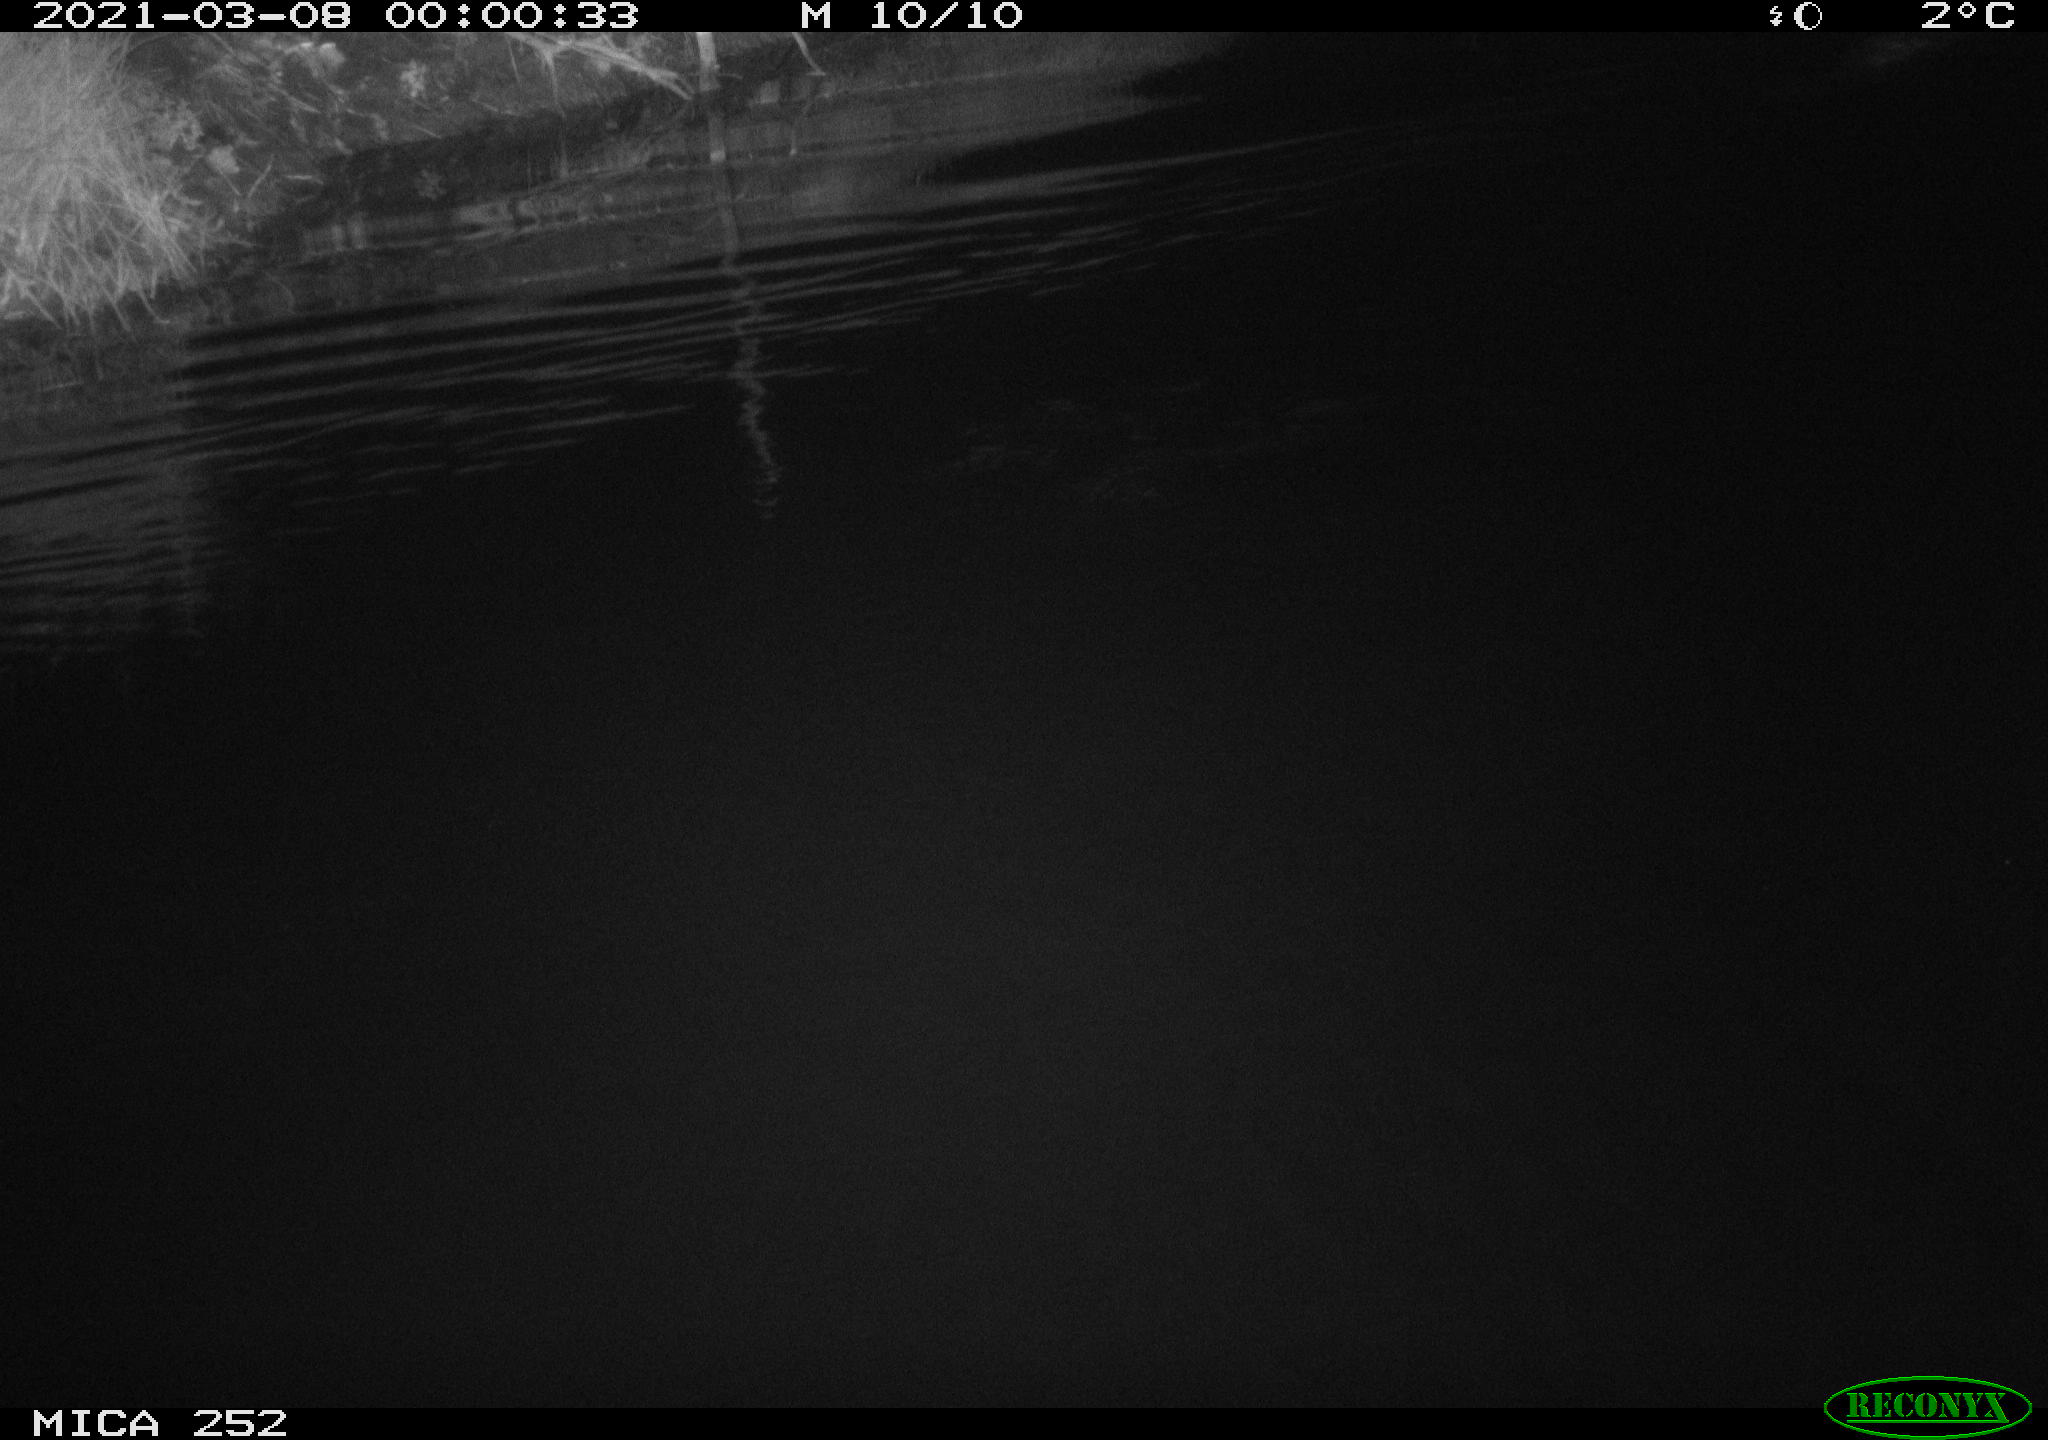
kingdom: Animalia
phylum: Chordata
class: Mammalia
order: Rodentia
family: Castoridae
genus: Castor
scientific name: Castor fiber
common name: Eurasian beaver
